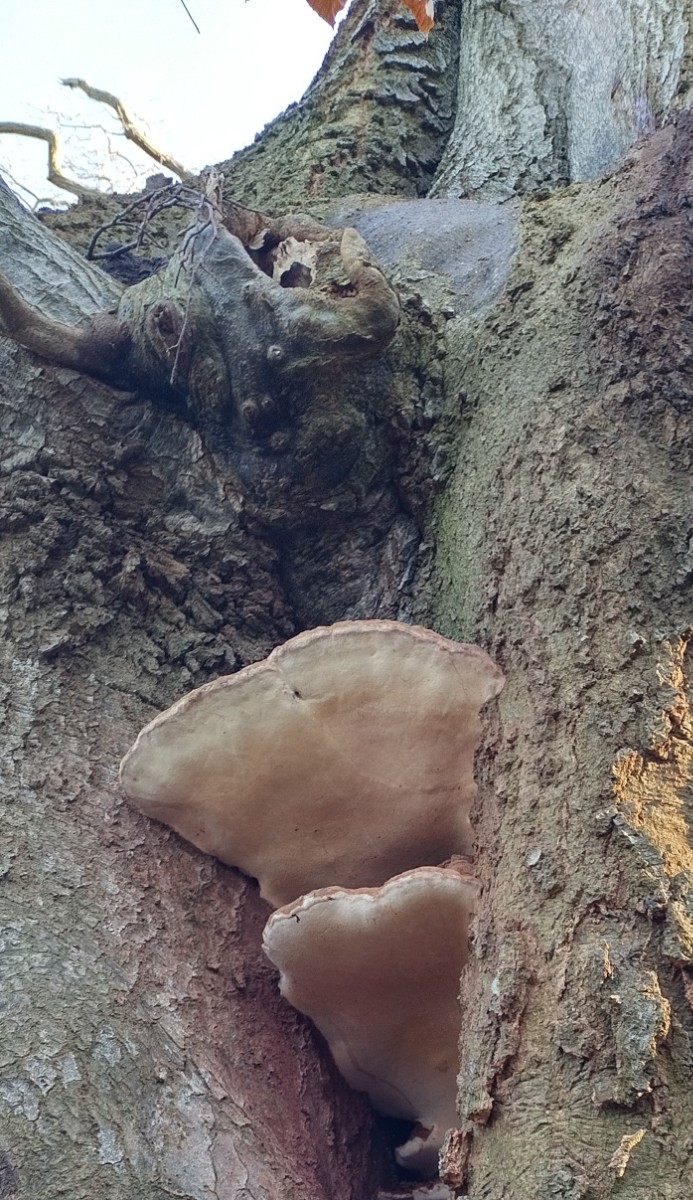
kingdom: Fungi
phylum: Basidiomycota
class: Agaricomycetes
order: Polyporales
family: Polyporaceae
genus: Ganoderma
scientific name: Ganoderma adspersum
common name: grov lakporesvamp
